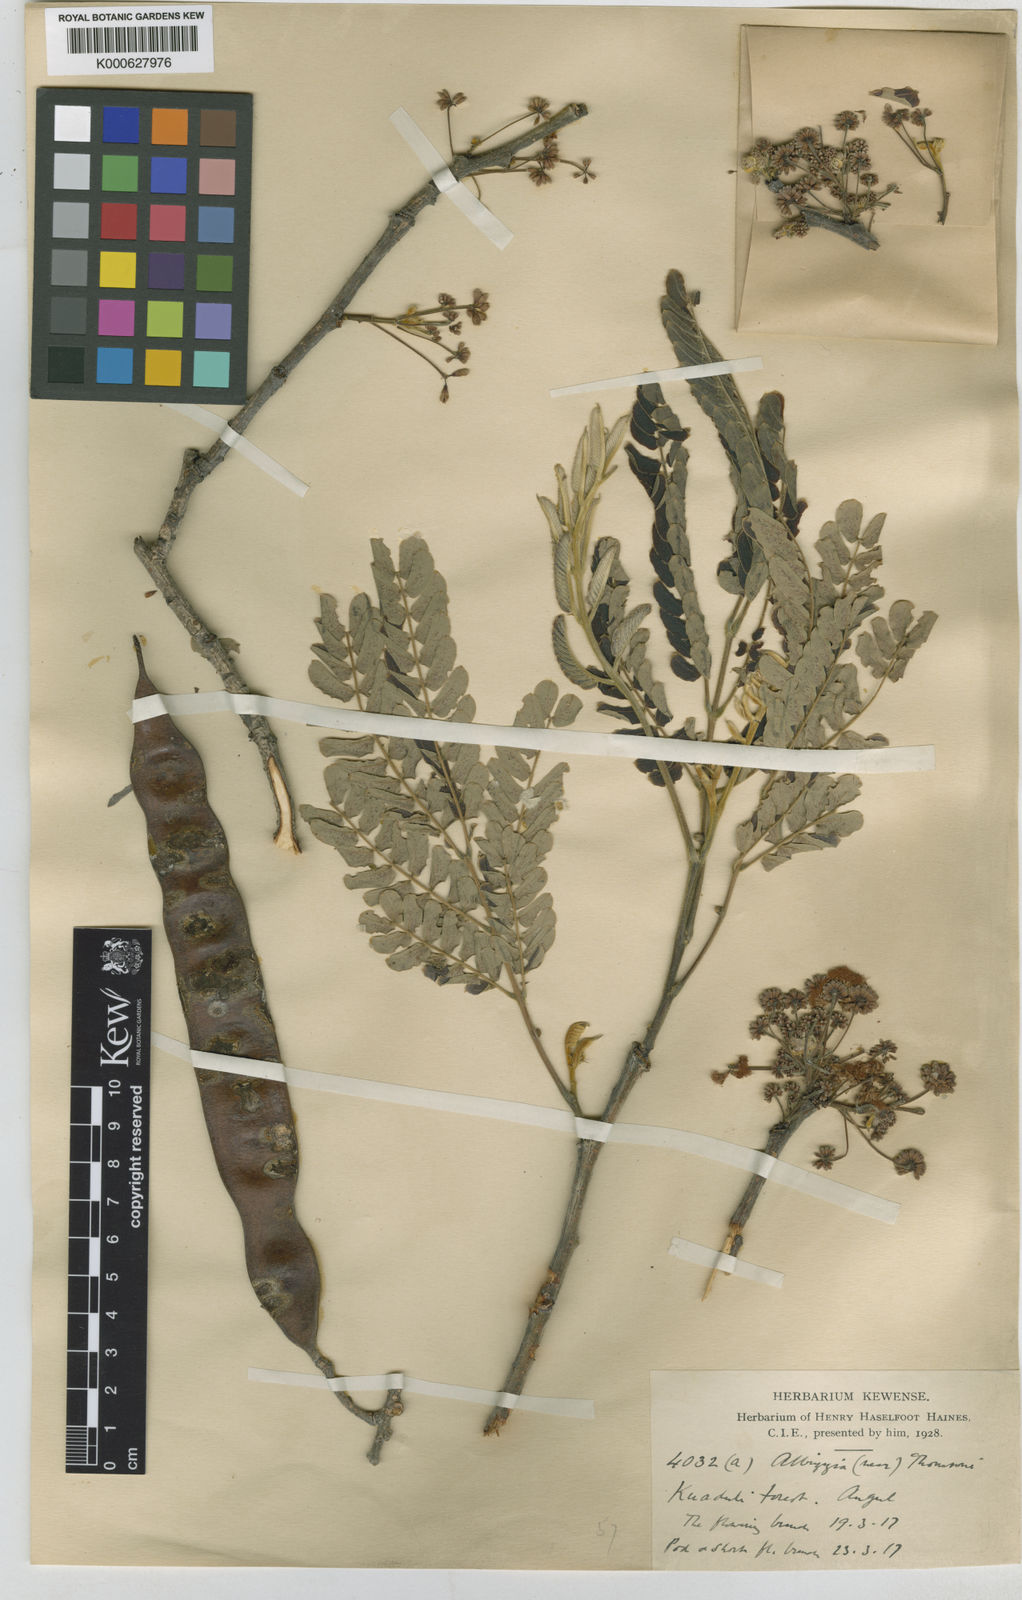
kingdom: Plantae
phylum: Tracheophyta
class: Magnoliopsida
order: Fabales
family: Fabaceae
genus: Albizia
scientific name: Albizia thompsonii
